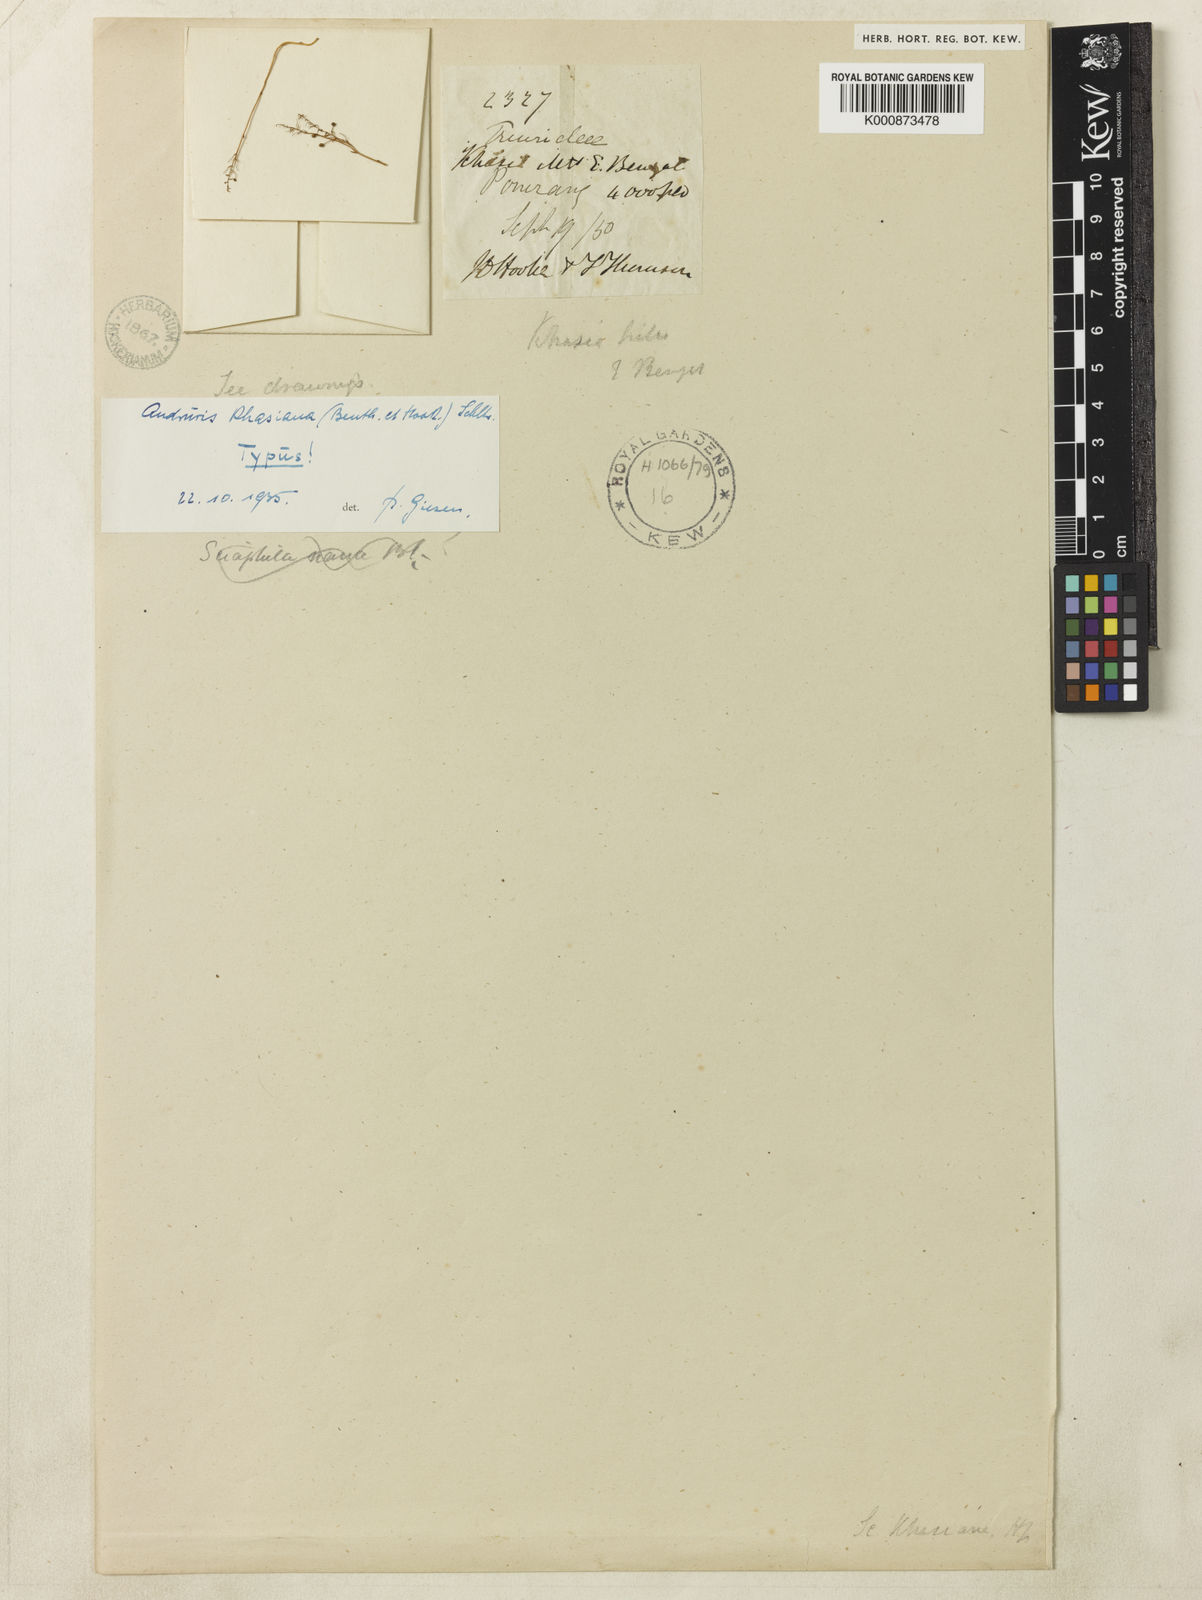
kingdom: Plantae
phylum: Tracheophyta
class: Liliopsida
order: Pandanales
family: Triuridaceae
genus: Sciaphila
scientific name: Sciaphila khasiana
